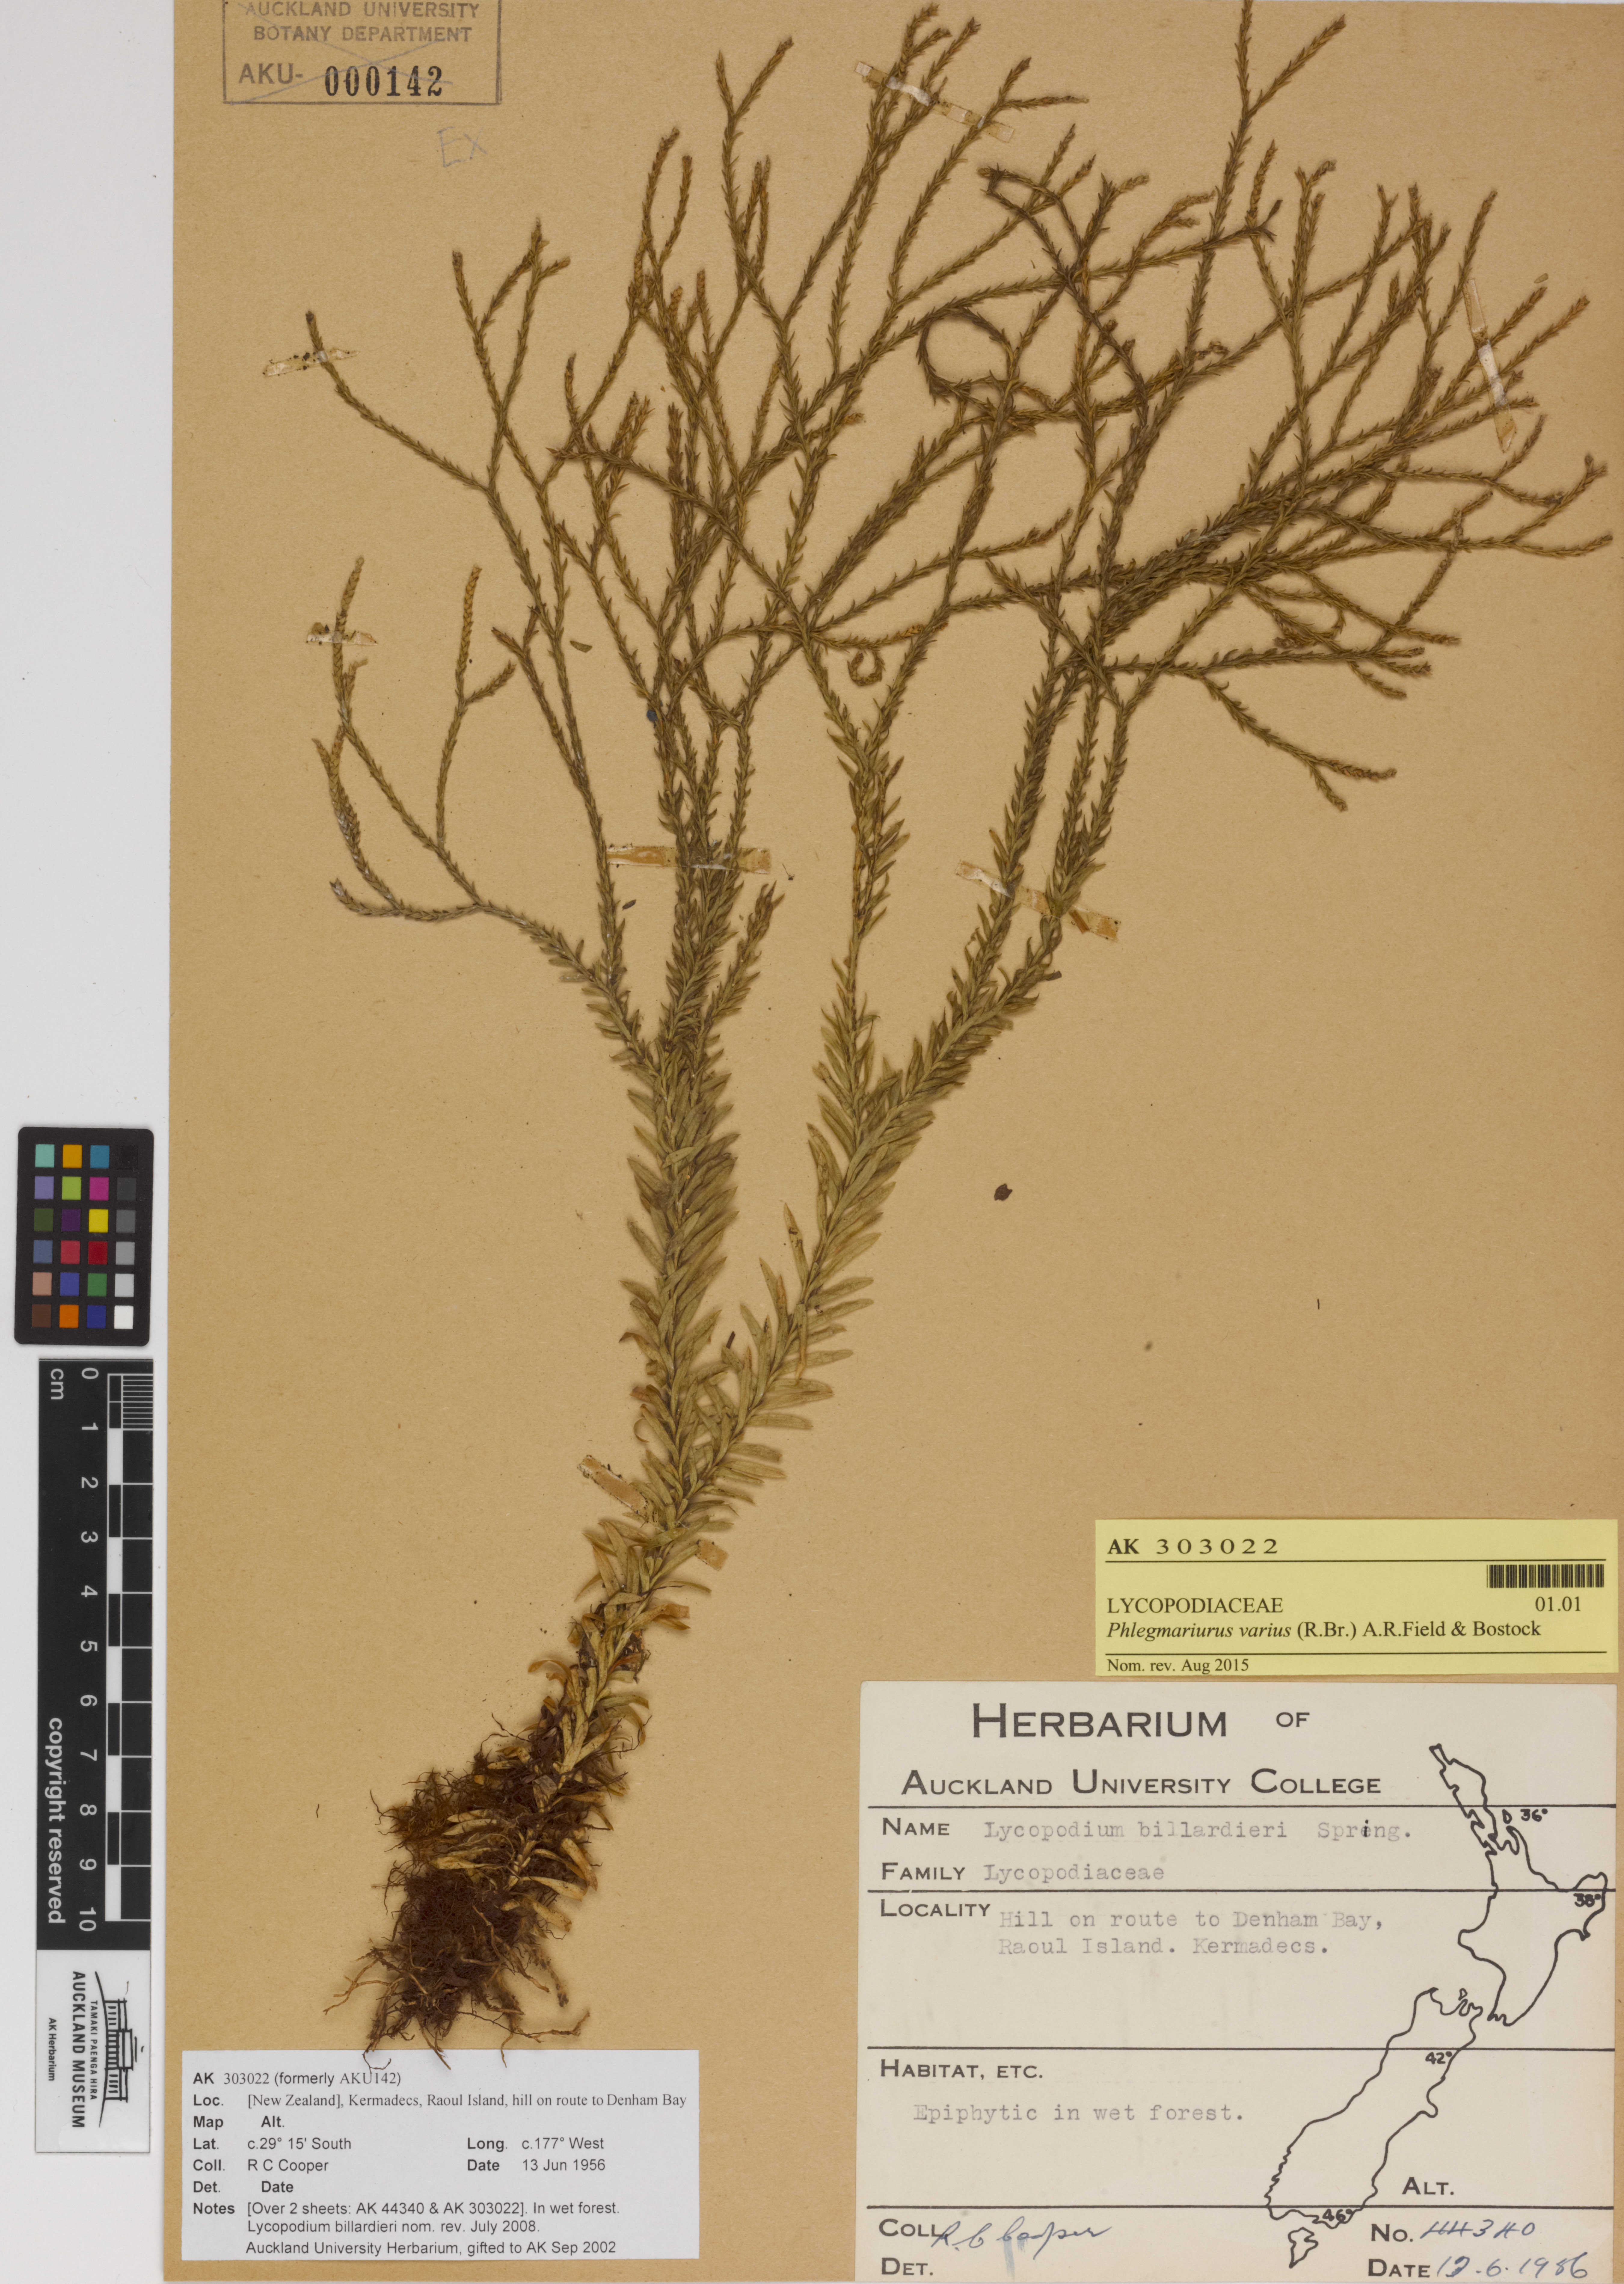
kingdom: Plantae
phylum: Tracheophyta
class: Lycopodiopsida
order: Lycopodiales
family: Lycopodiaceae
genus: Phlegmariurus
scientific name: Phlegmariurus billardierei
